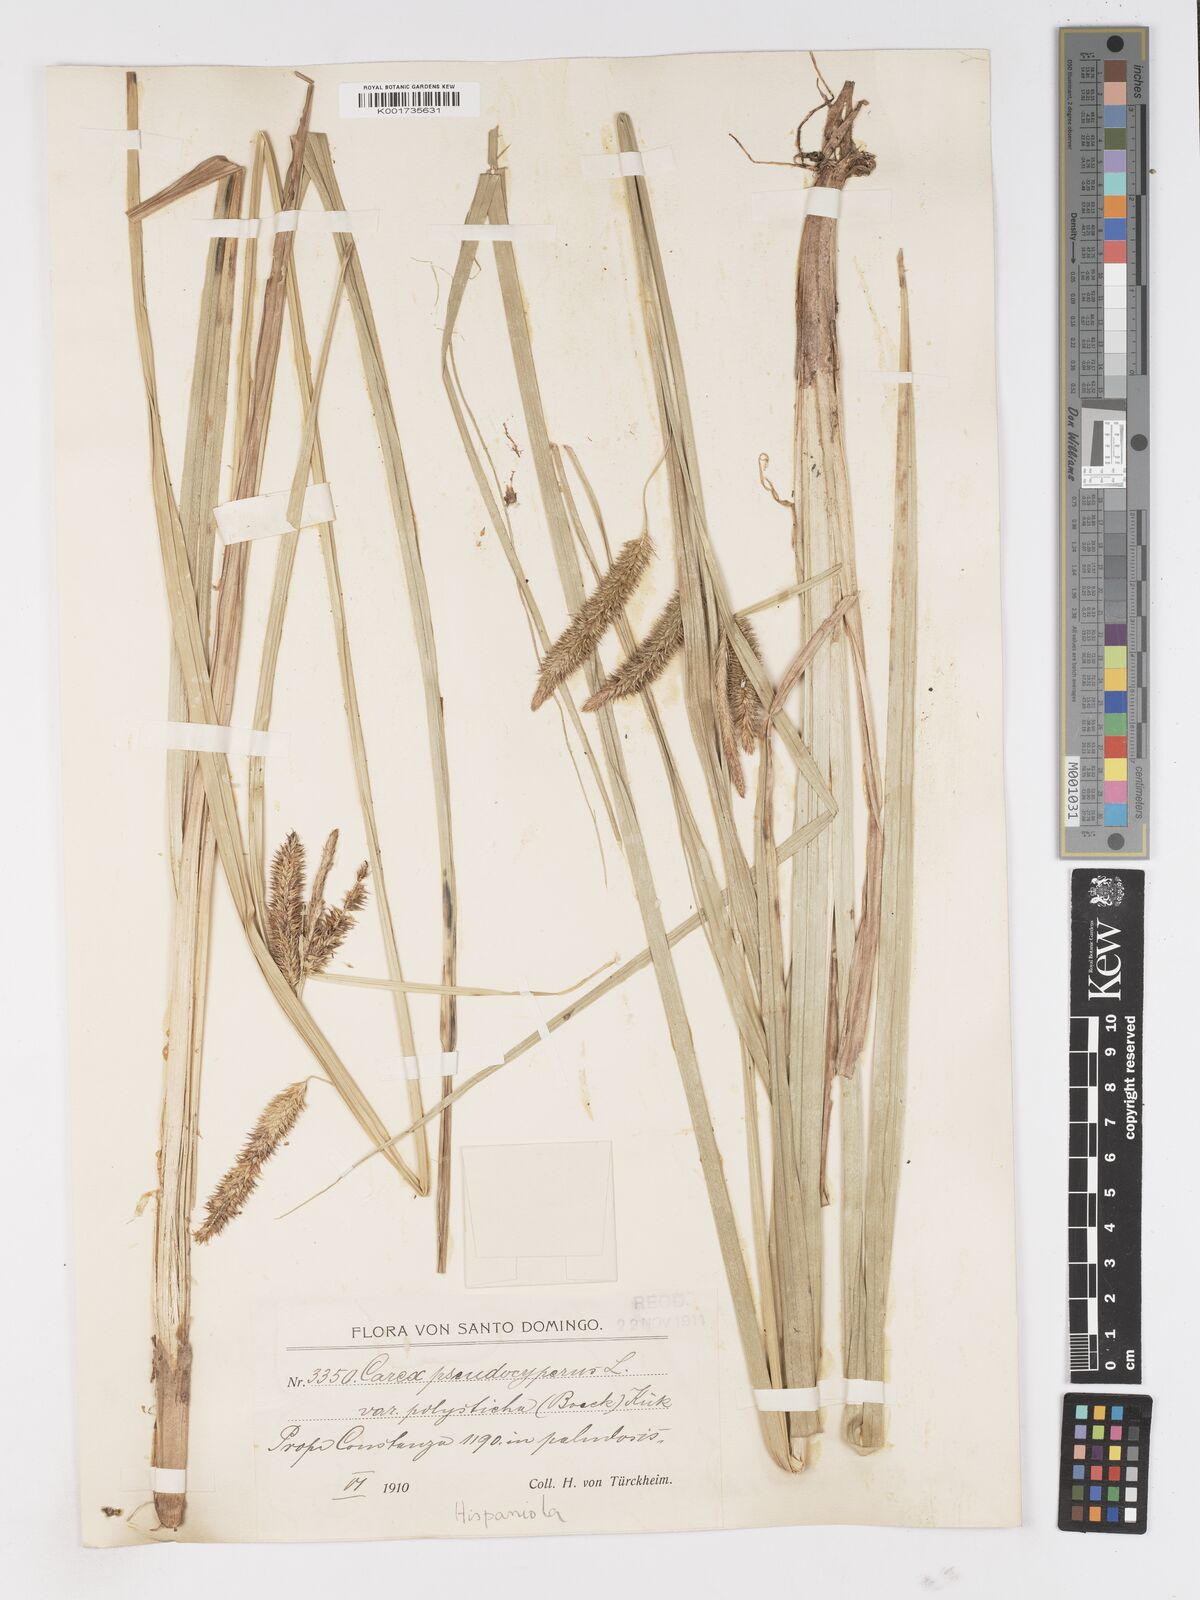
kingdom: Plantae
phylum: Tracheophyta
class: Liliopsida
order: Poales
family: Cyperaceae
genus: Carex
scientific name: Carex polysticha
